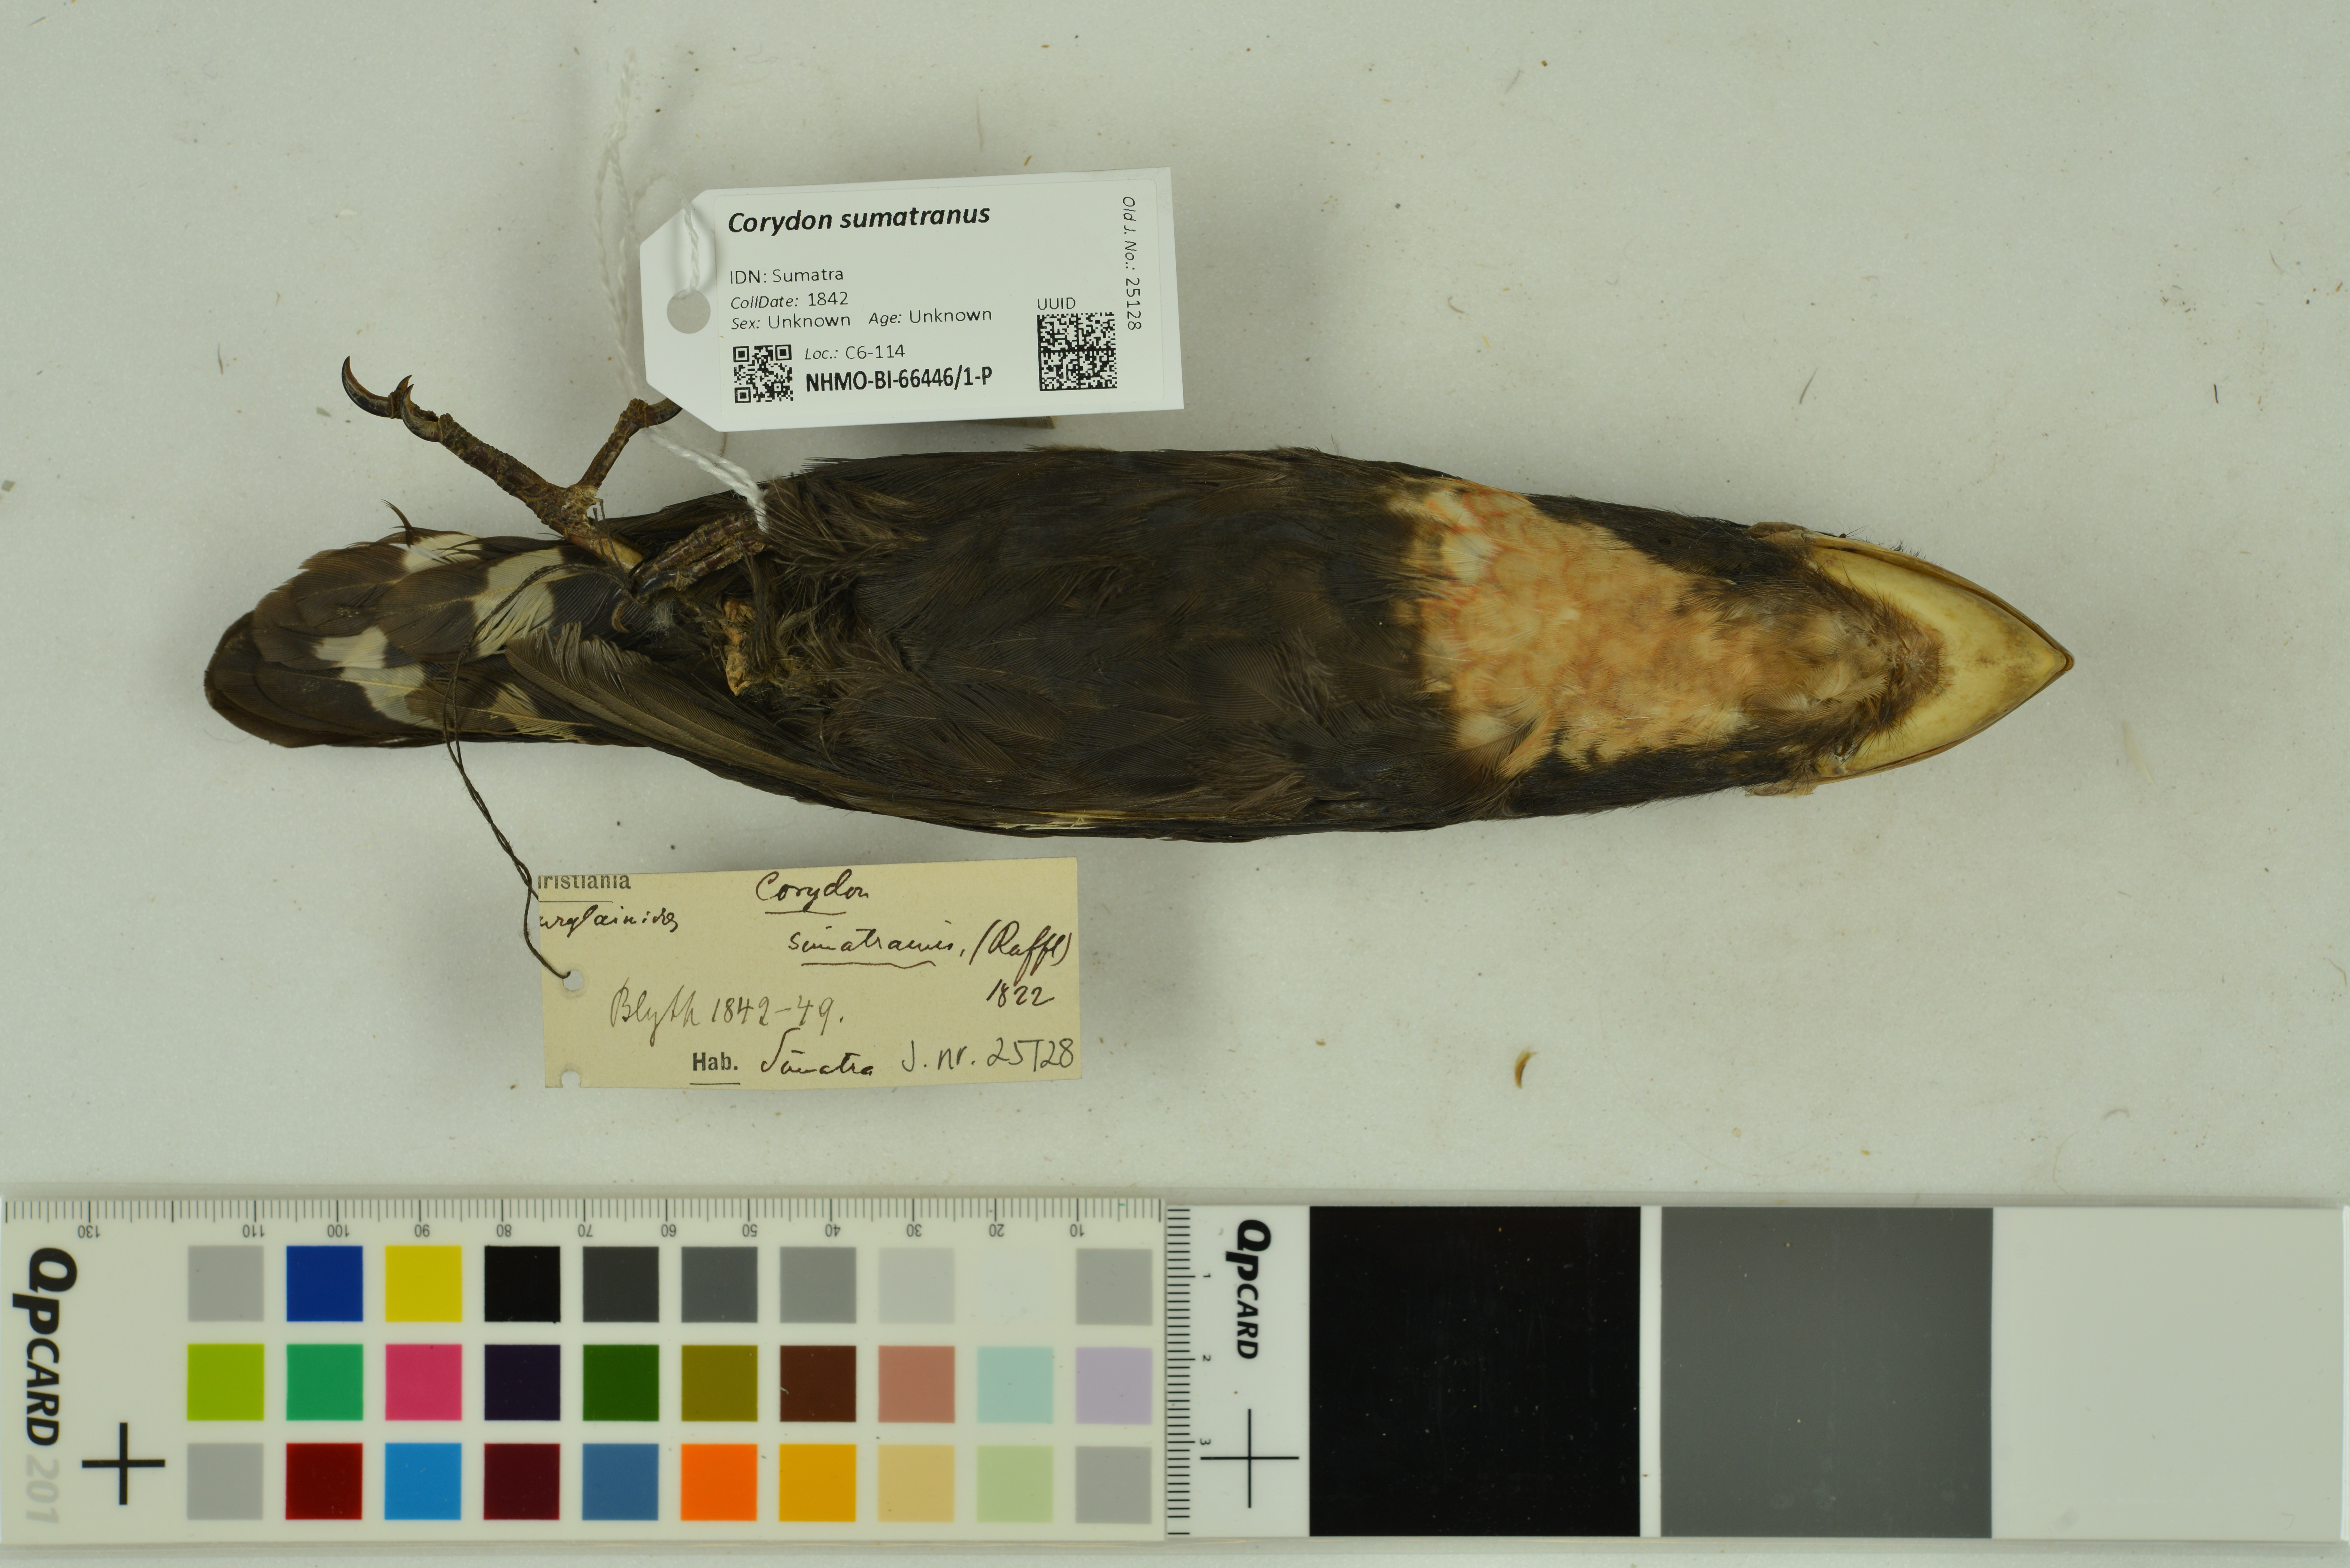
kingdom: Animalia
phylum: Chordata
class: Aves
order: Passeriformes
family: Eurylaimidae
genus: Corydon
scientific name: Corydon sumatranus
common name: Dusky broadbill
